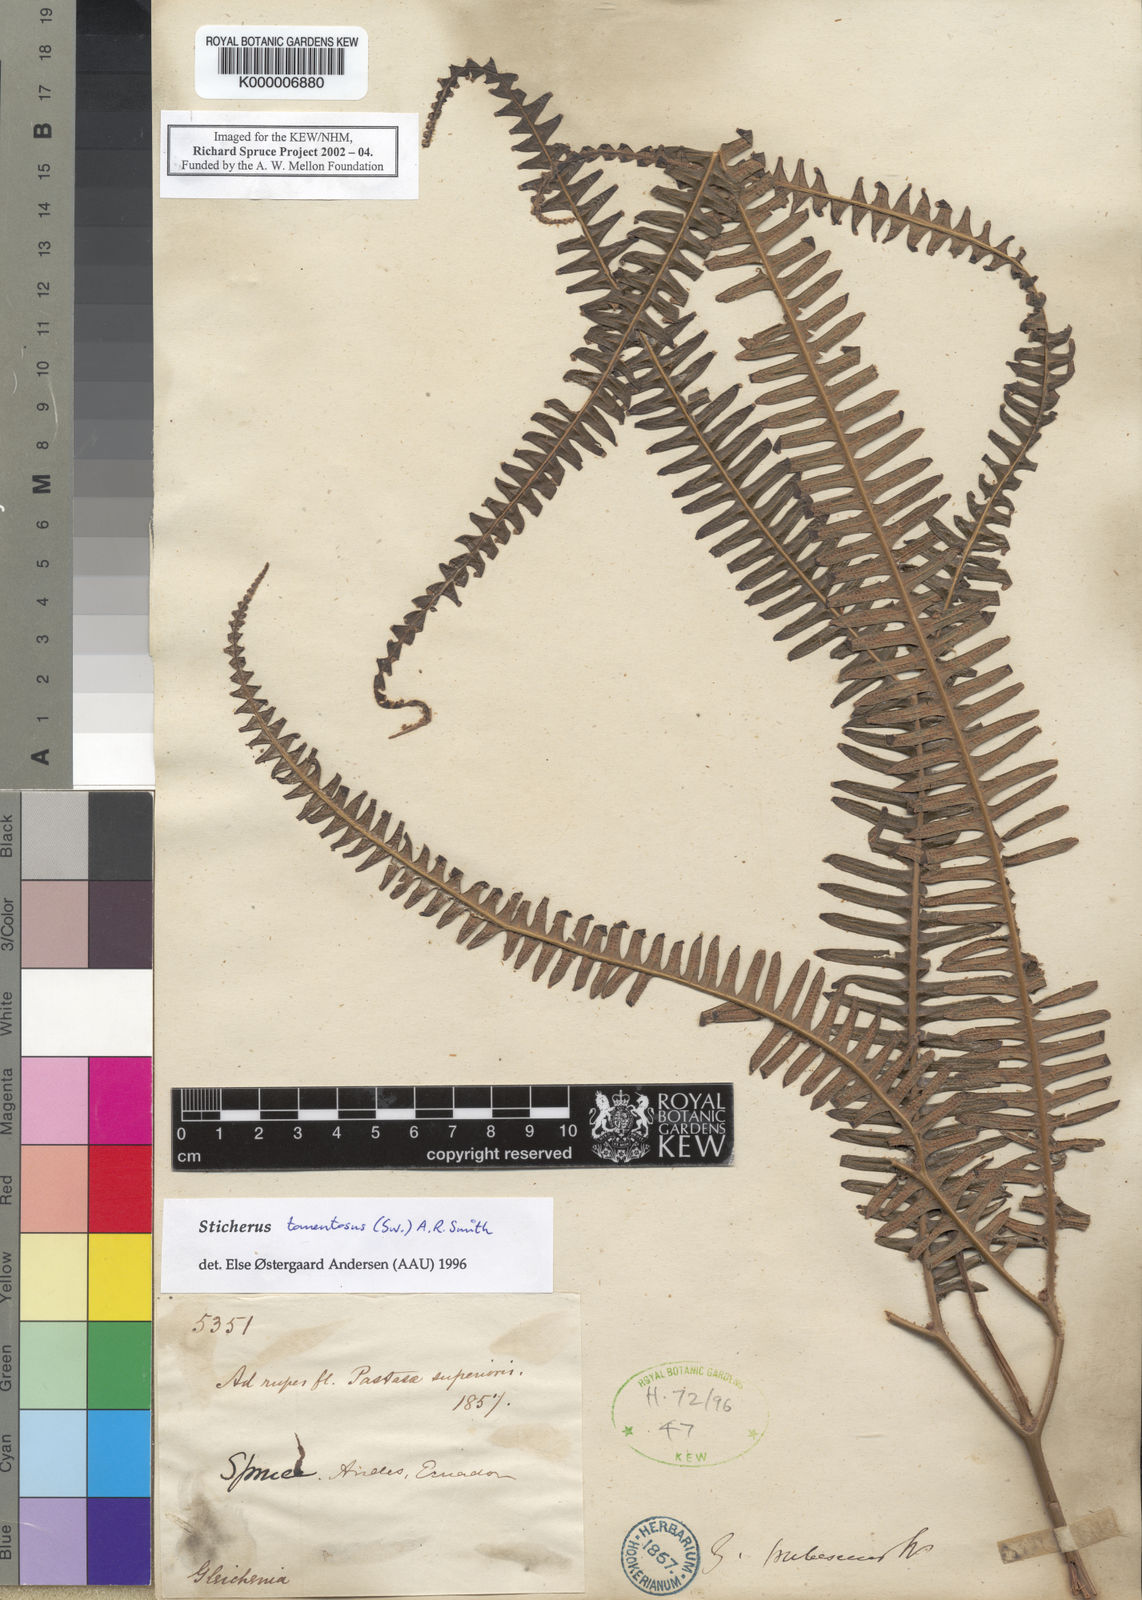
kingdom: Plantae
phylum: Tracheophyta
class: Polypodiopsida
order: Gleicheniales
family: Gleicheniaceae
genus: Sticherus
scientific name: Sticherus tomentosus
